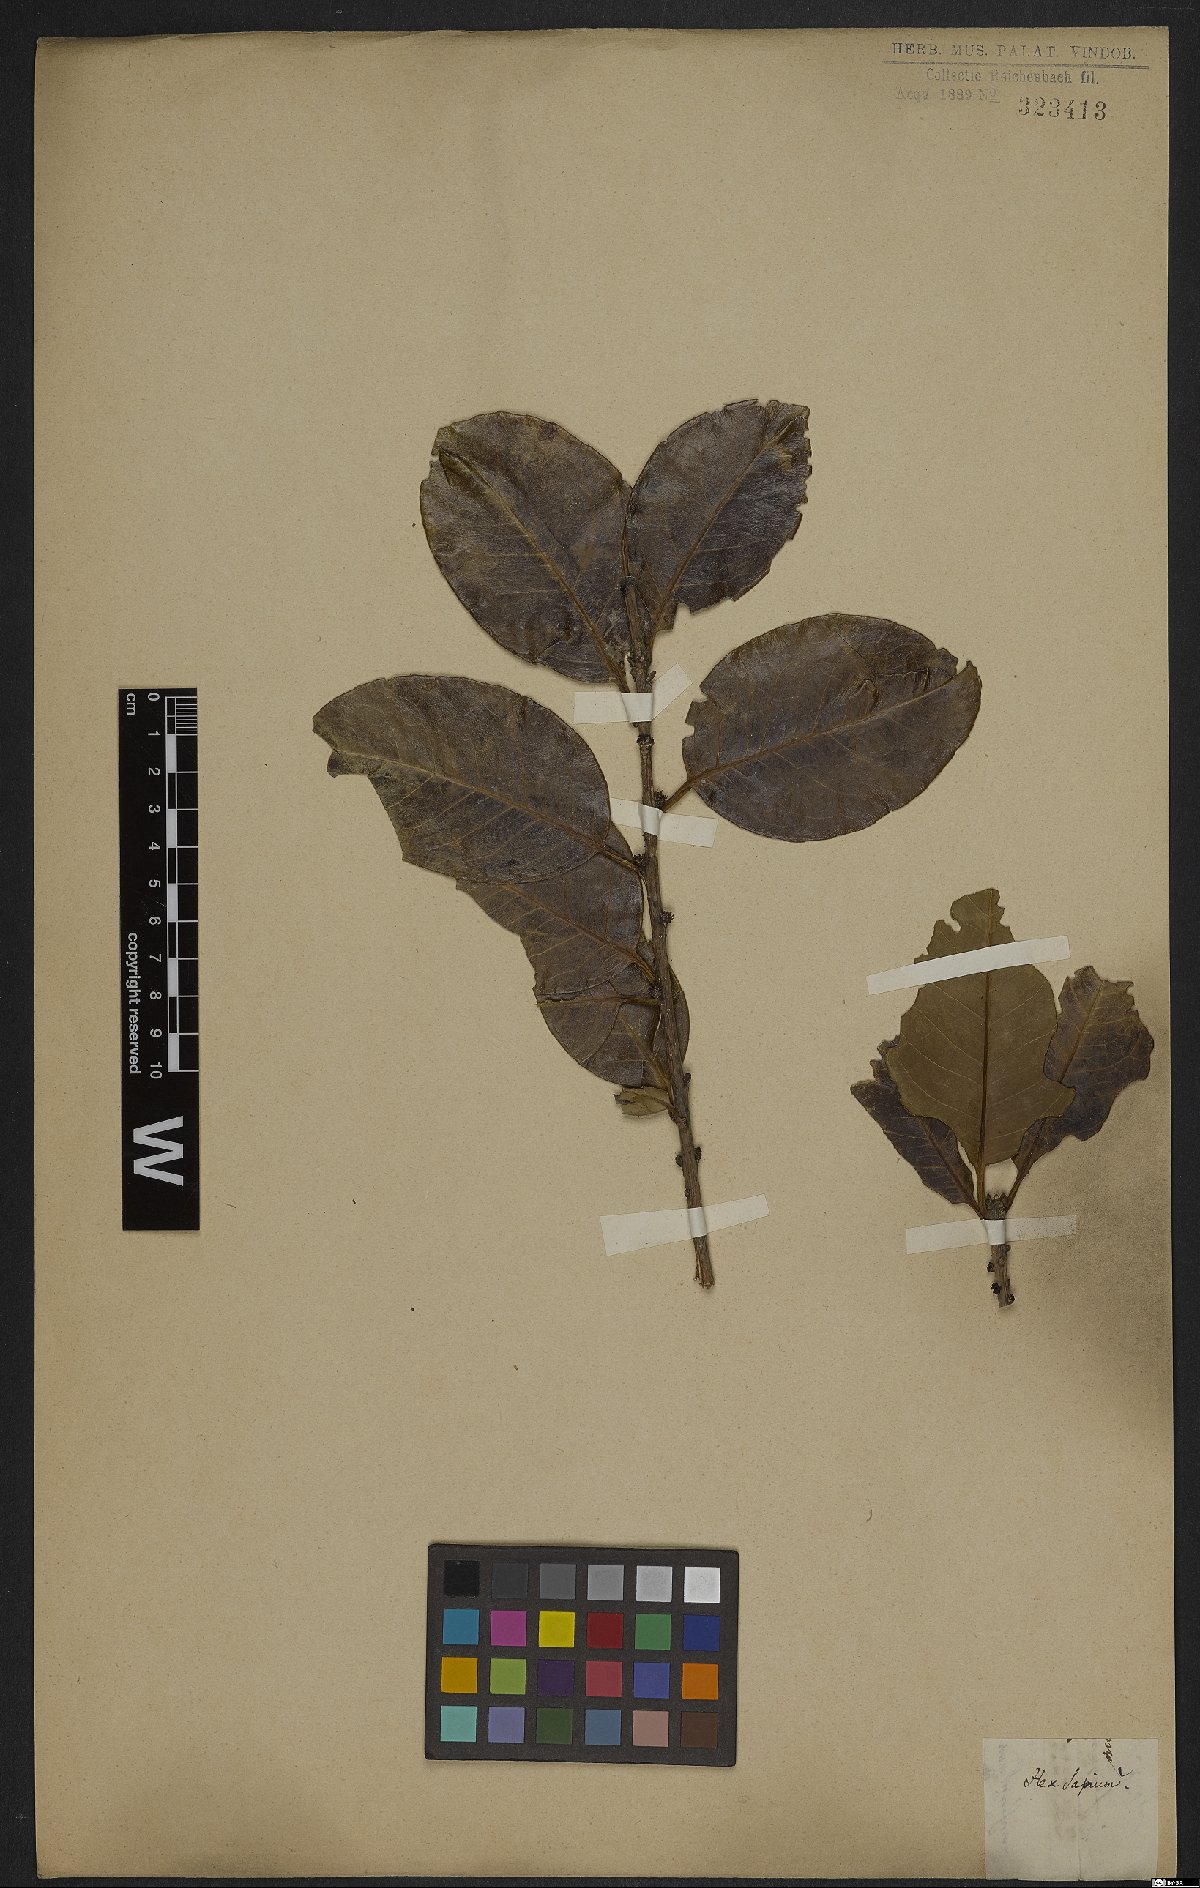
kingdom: Plantae
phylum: Tracheophyta
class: Magnoliopsida
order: Aquifoliales
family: Aquifoliaceae
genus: Ilex
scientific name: Ilex sapotifolia
